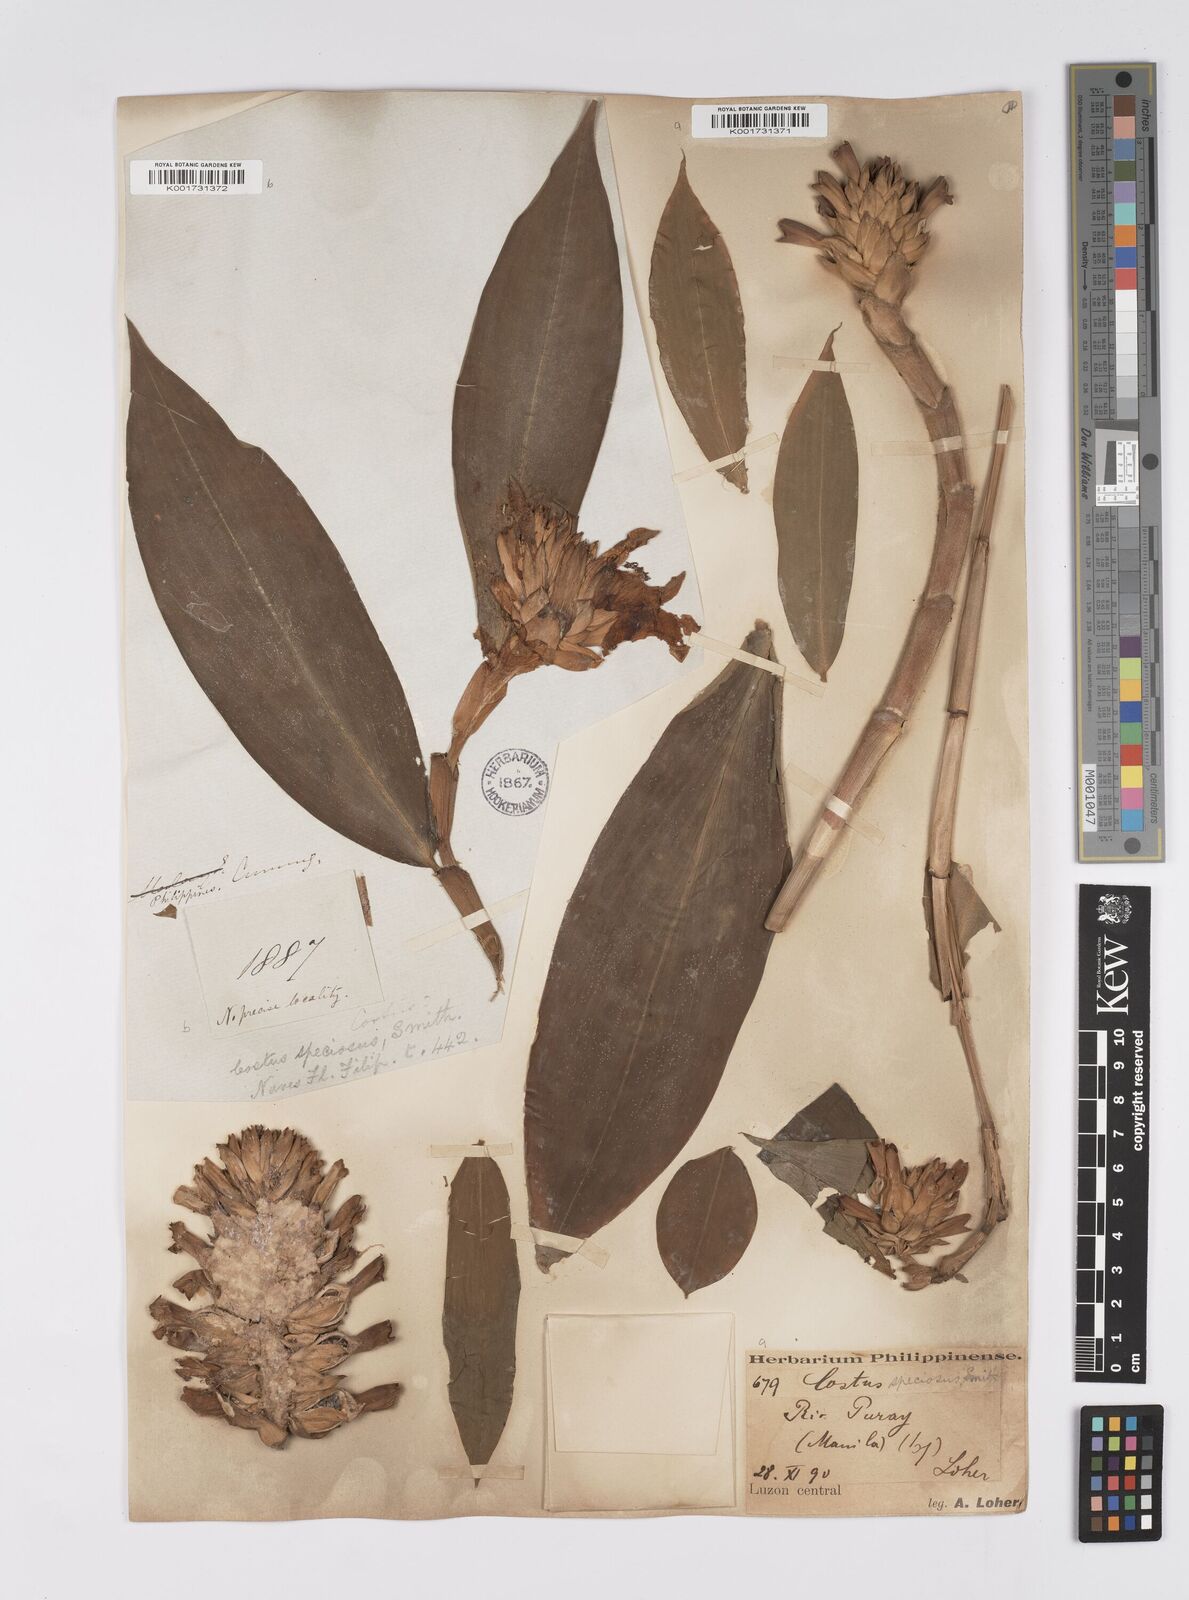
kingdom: Plantae
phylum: Tracheophyta
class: Liliopsida
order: Zingiberales
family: Costaceae
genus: Hellenia
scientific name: Hellenia speciosa
